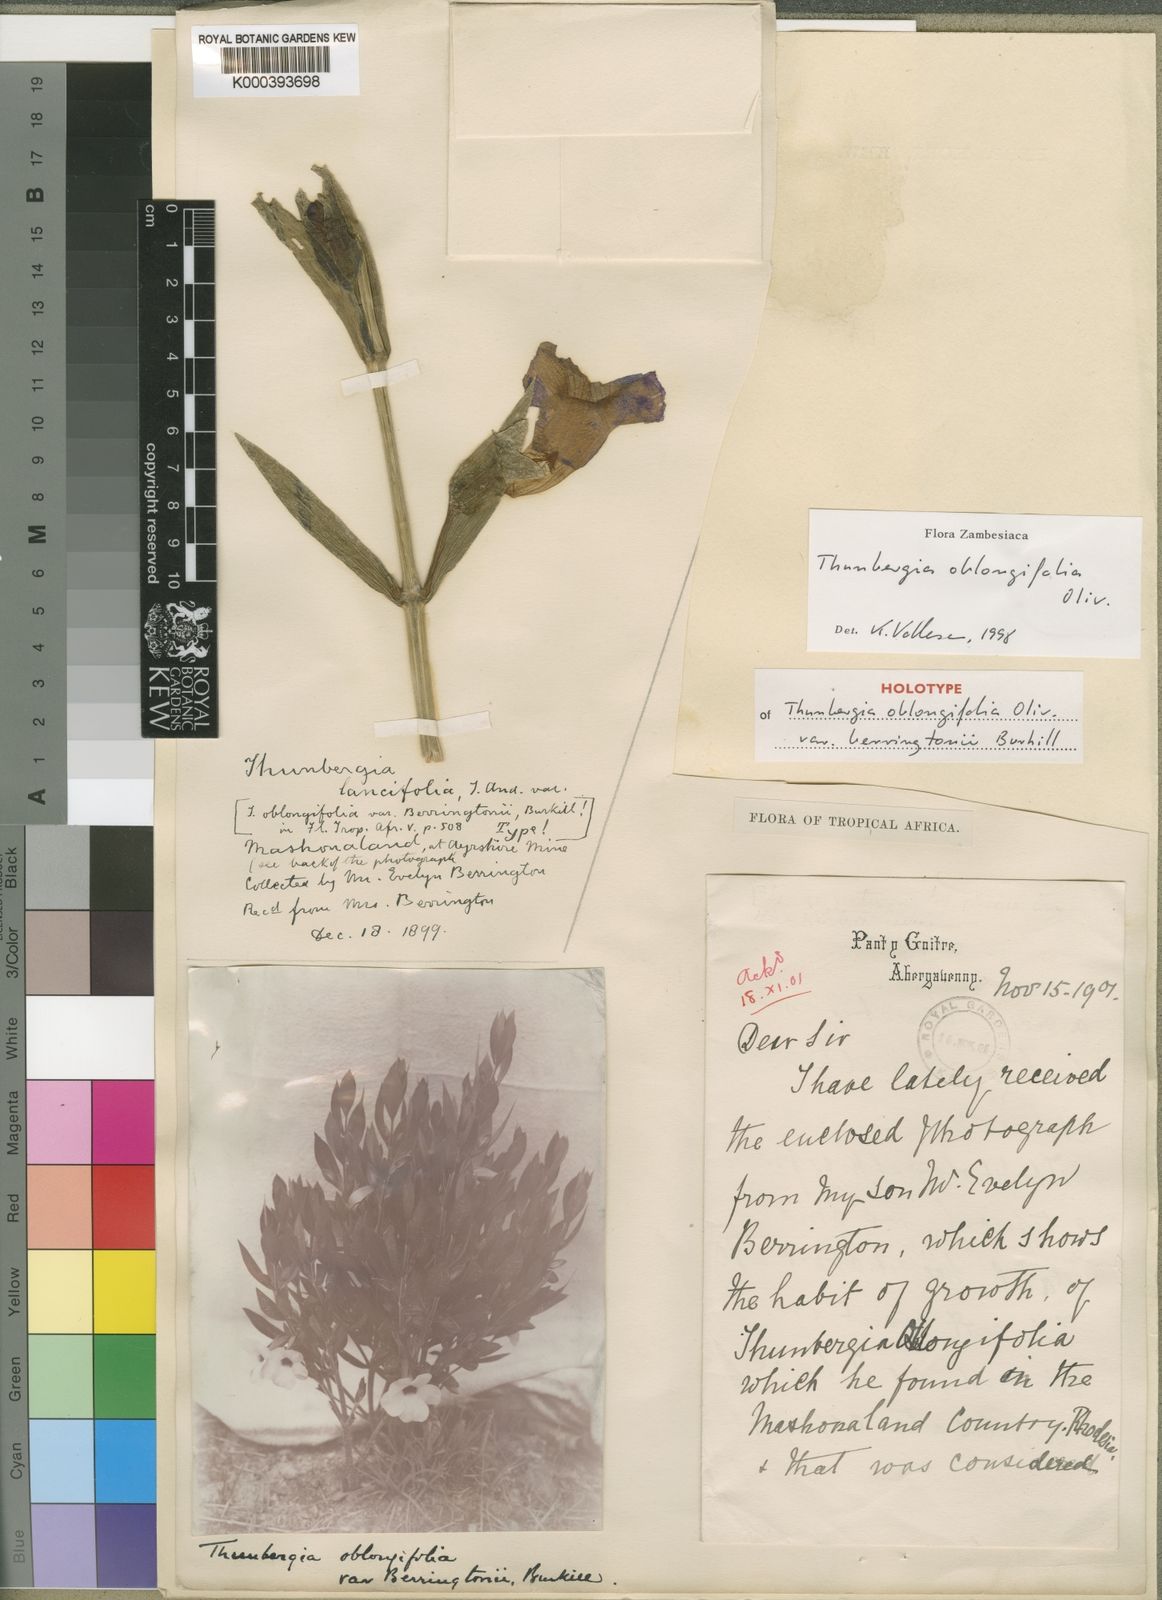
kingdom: Plantae
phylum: Tracheophyta
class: Magnoliopsida
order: Lamiales
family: Acanthaceae
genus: Thunbergia
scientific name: Thunbergia oblongifolia
